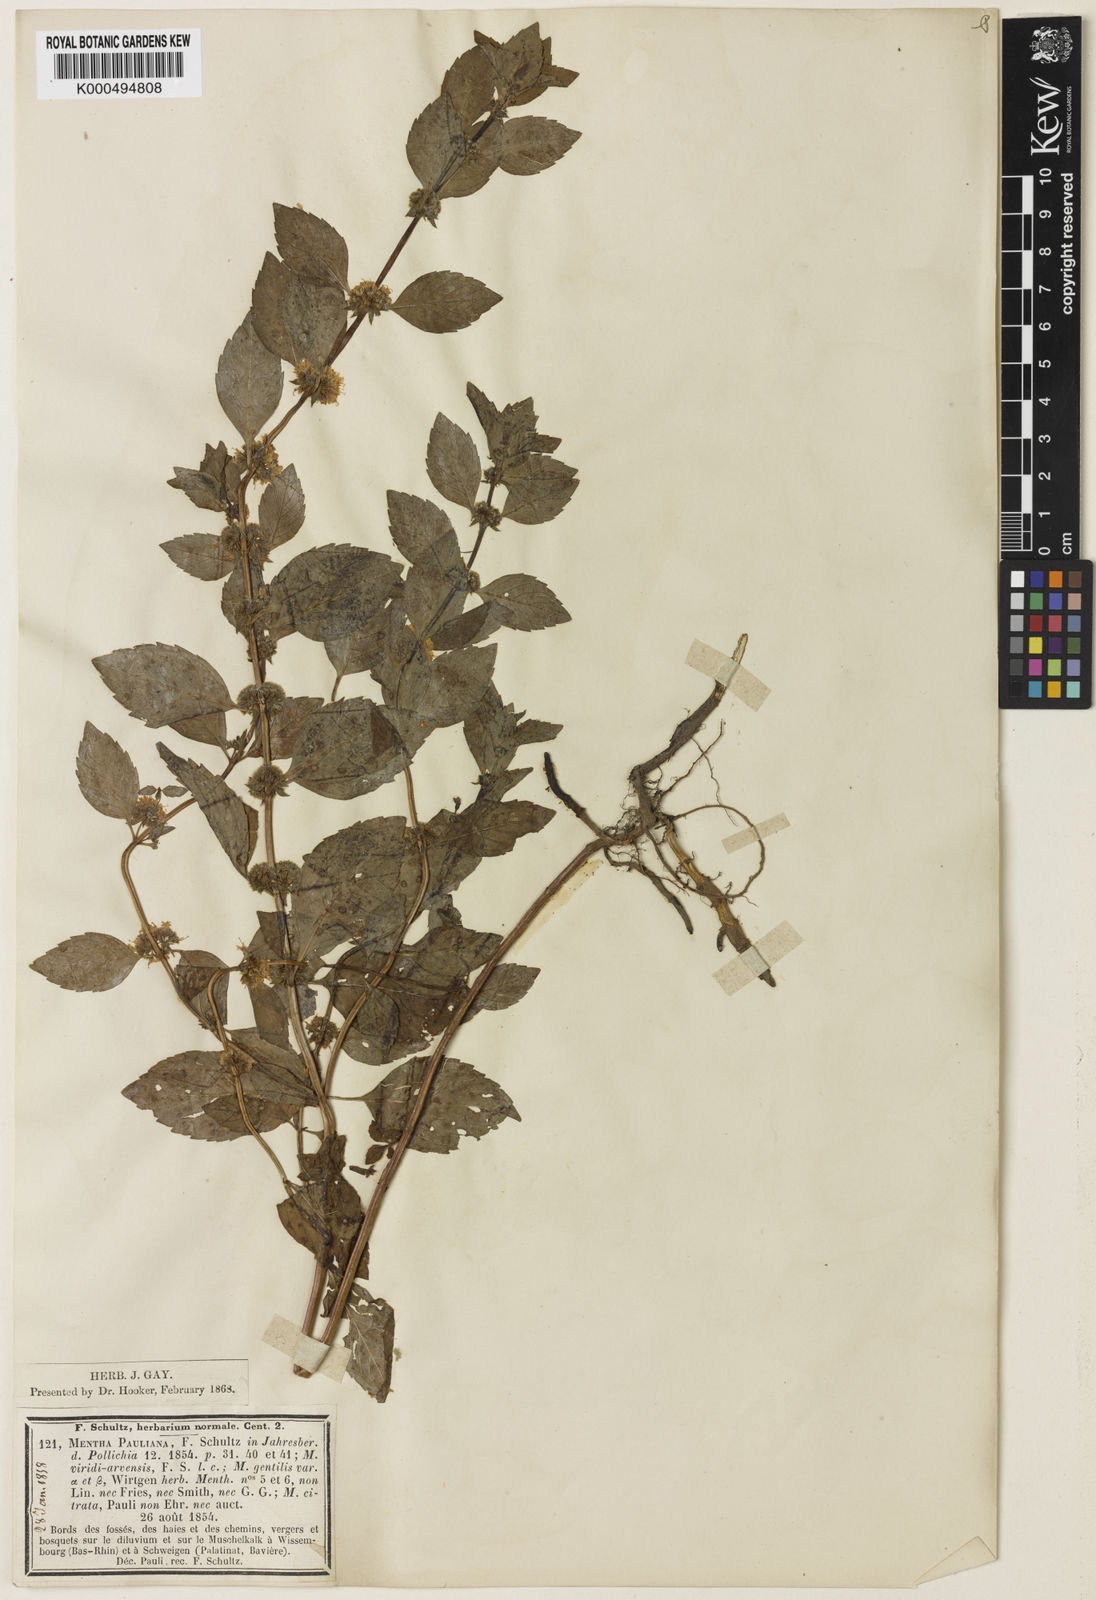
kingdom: Plantae
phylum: Tracheophyta
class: Magnoliopsida
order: Lamiales
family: Lamiaceae
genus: Mentha
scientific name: Mentha arvensis
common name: Corn mint
